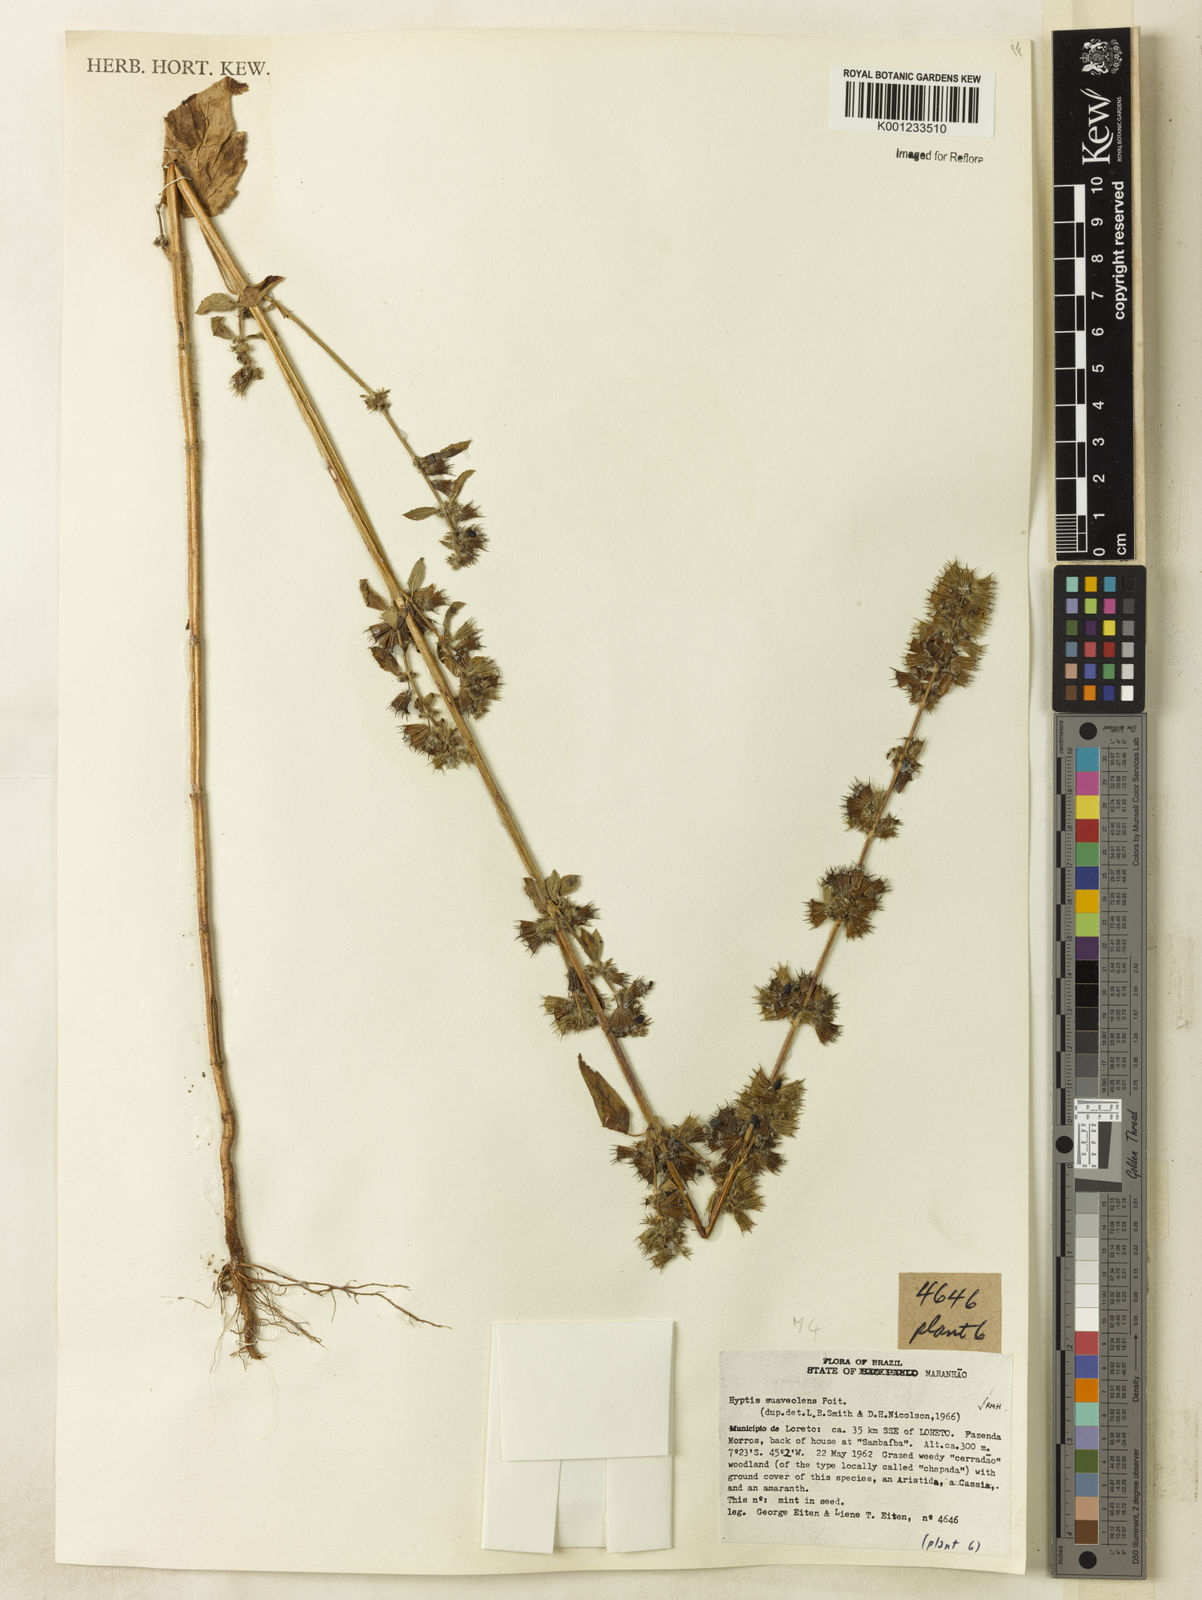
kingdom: Plantae
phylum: Tracheophyta
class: Magnoliopsida
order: Lamiales
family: Lamiaceae
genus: Mesosphaerum
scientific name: Mesosphaerum suaveolens
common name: Pignut
